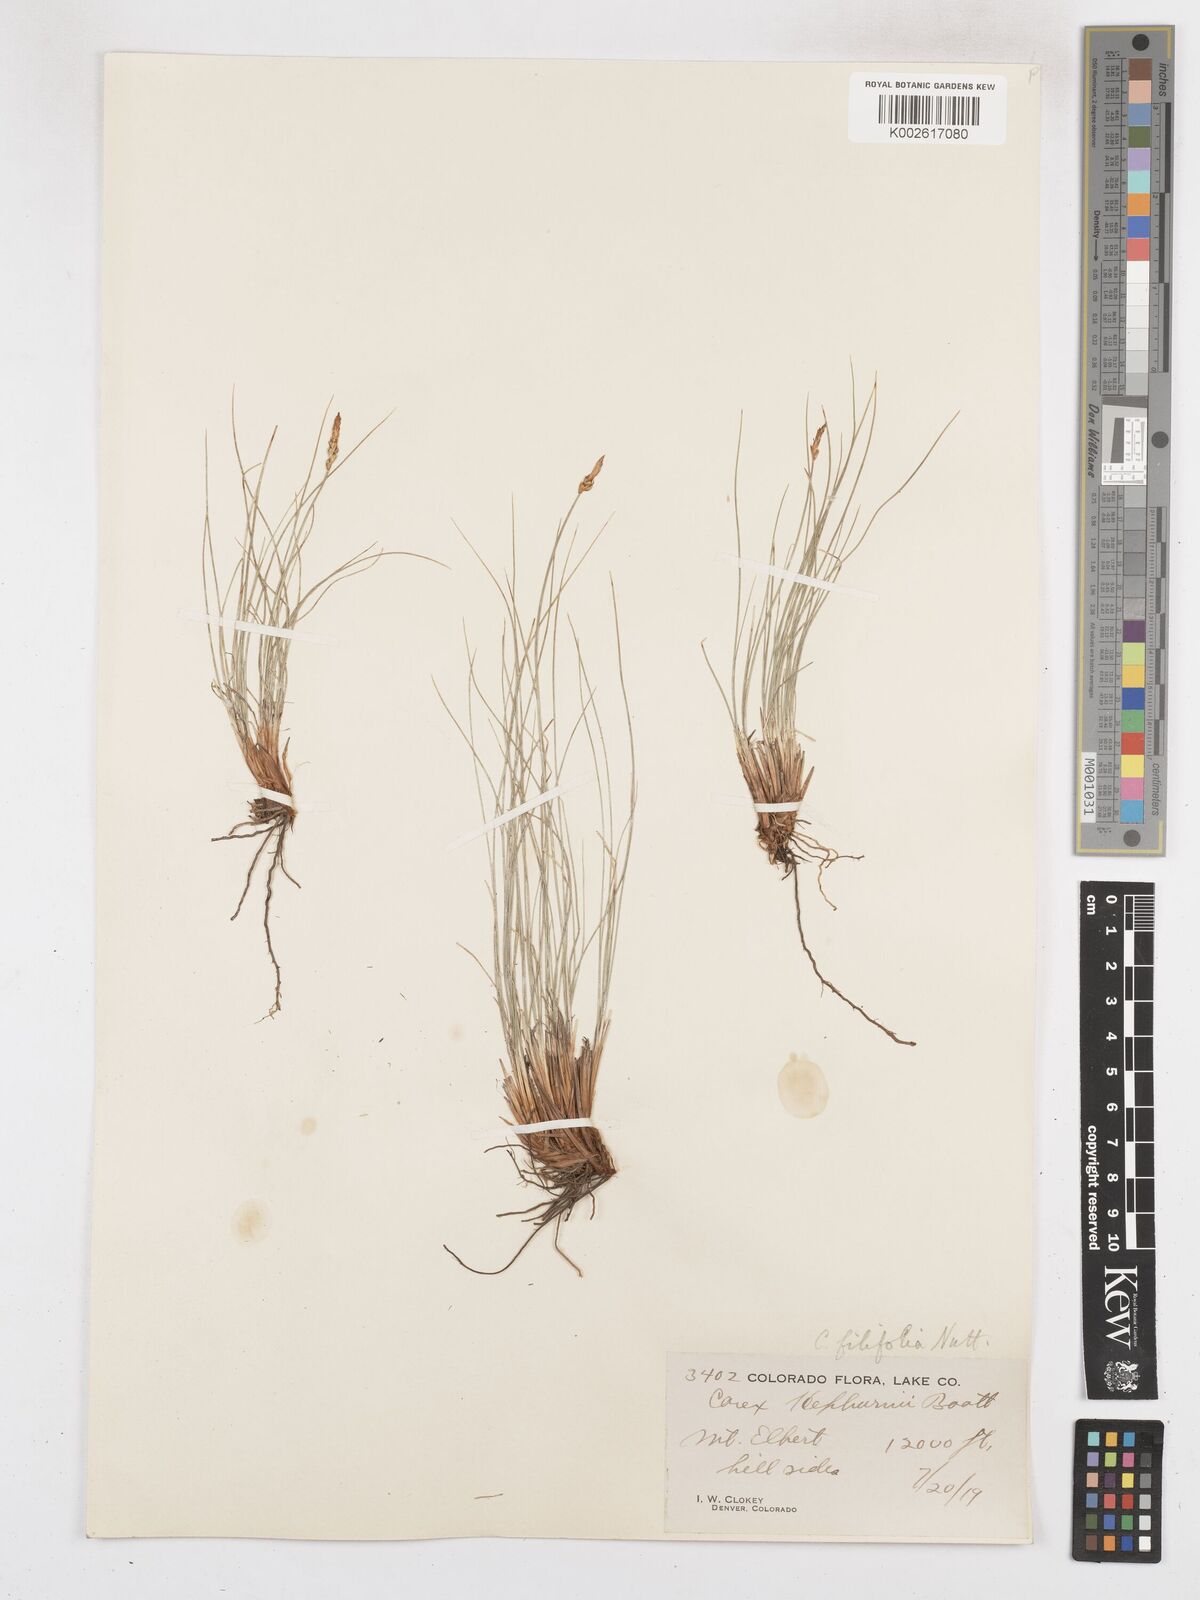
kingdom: Plantae
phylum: Tracheophyta
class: Liliopsida
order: Poales
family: Cyperaceae
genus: Carex
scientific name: Carex filifolia
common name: Threadleaf sedge
